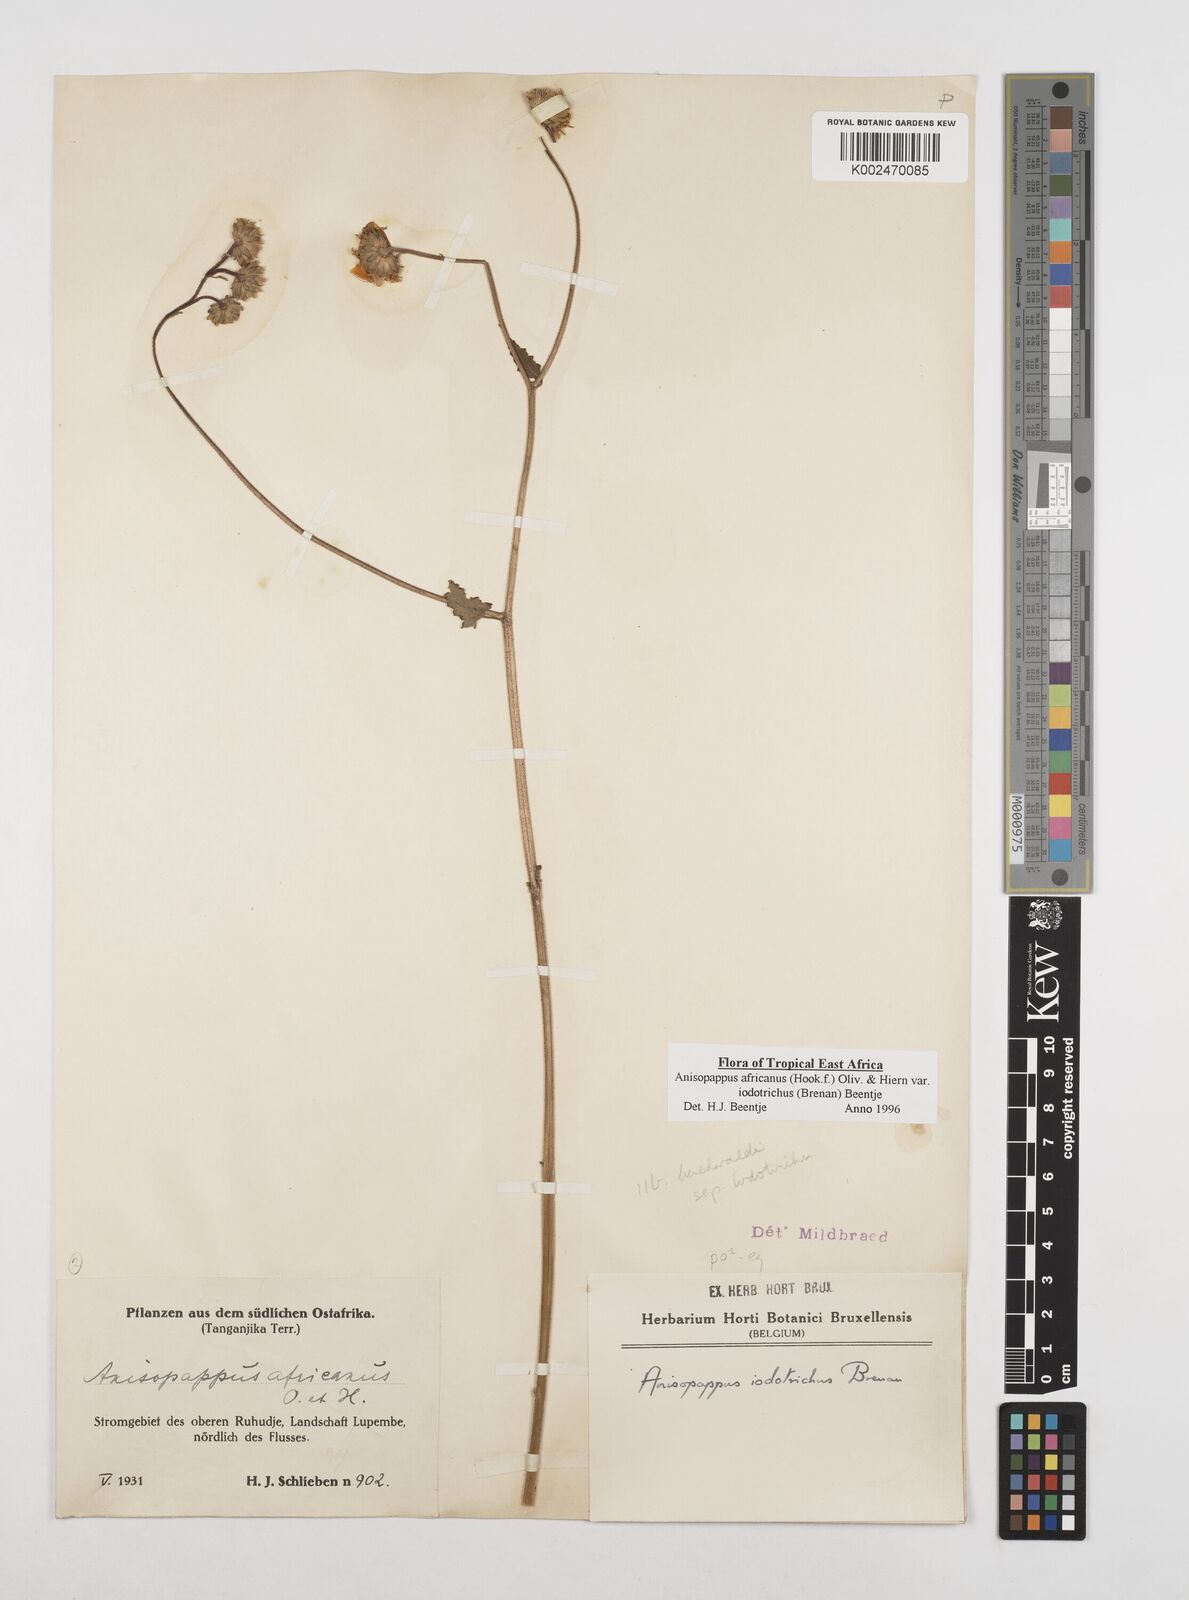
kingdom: Plantae
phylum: Tracheophyta
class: Magnoliopsida
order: Asterales
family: Asteraceae
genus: Anisopappus
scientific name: Anisopappus buchwaldii
